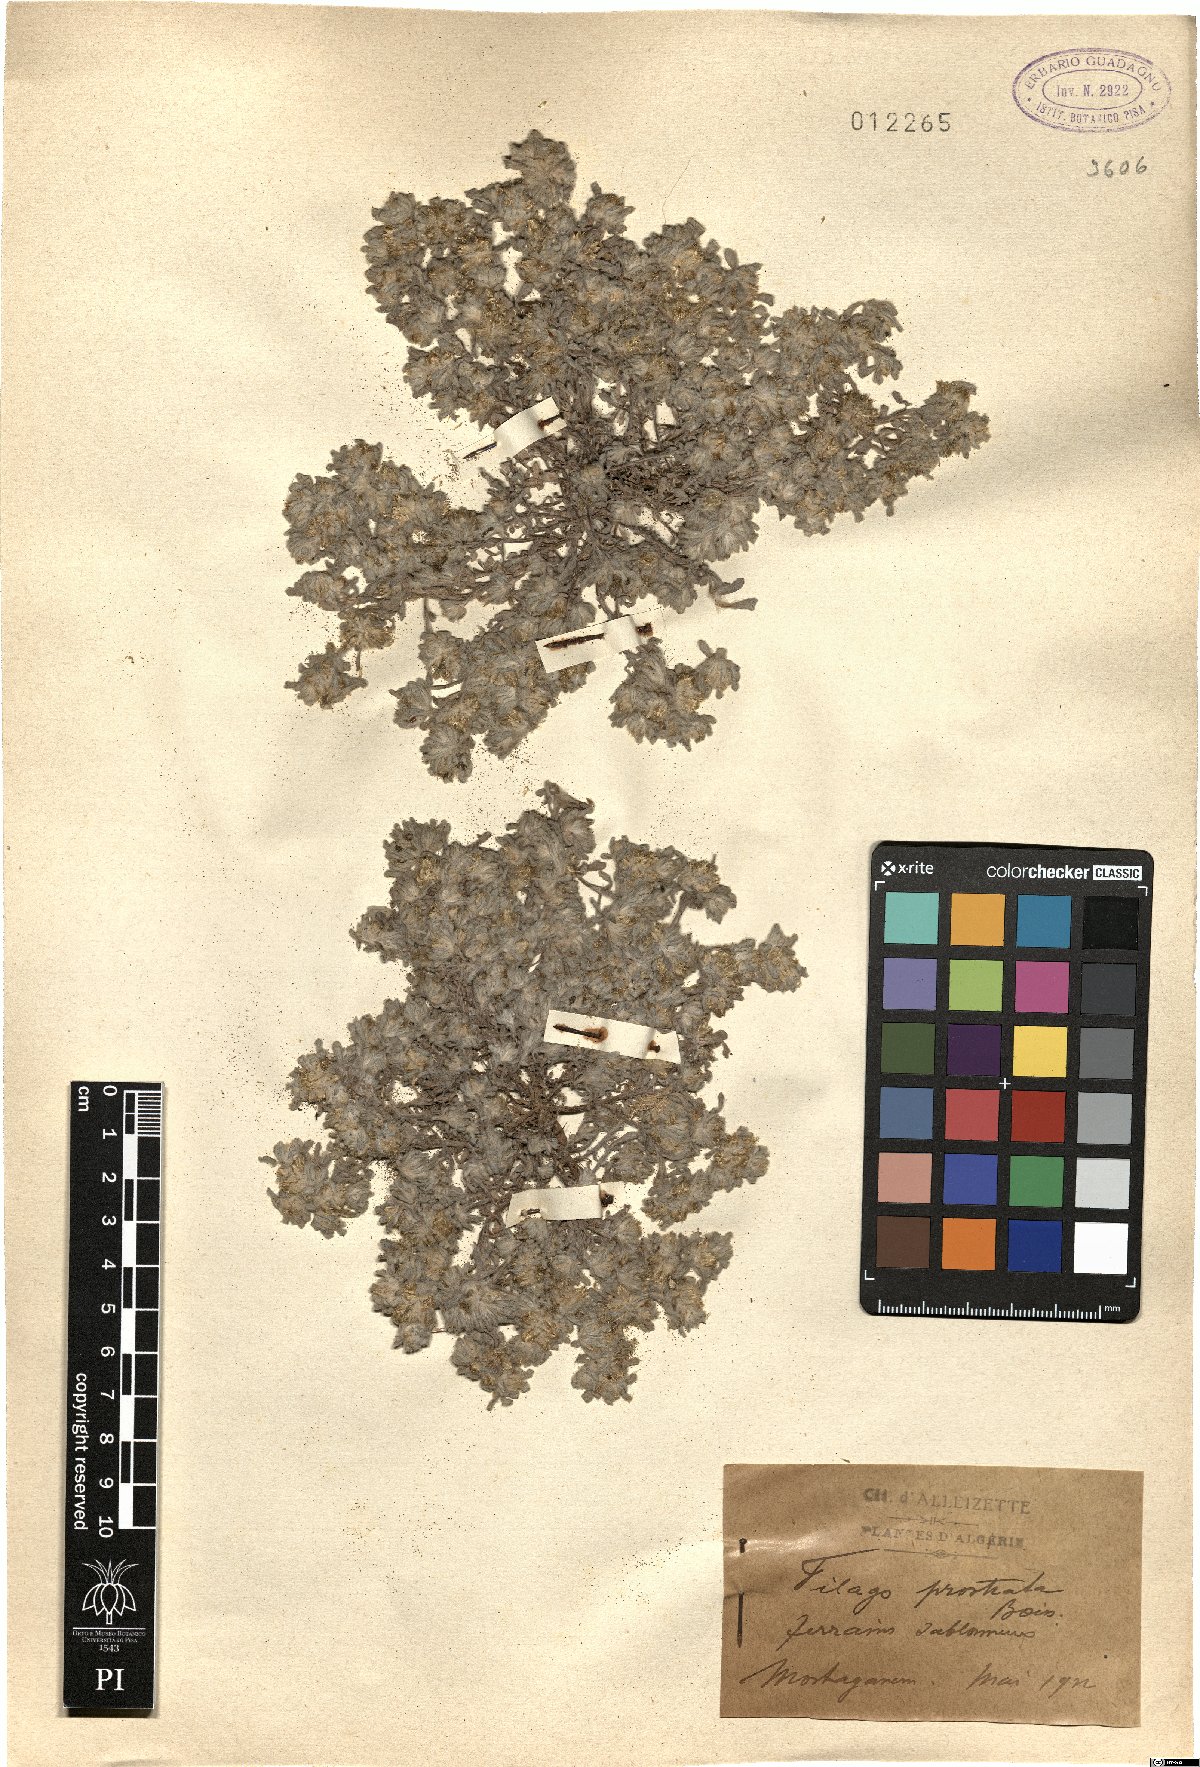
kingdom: Plantae
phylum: Tracheophyta
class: Magnoliopsida
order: Asterales
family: Asteraceae
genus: Gnomophalium
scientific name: Gnomophalium pulvinatum
